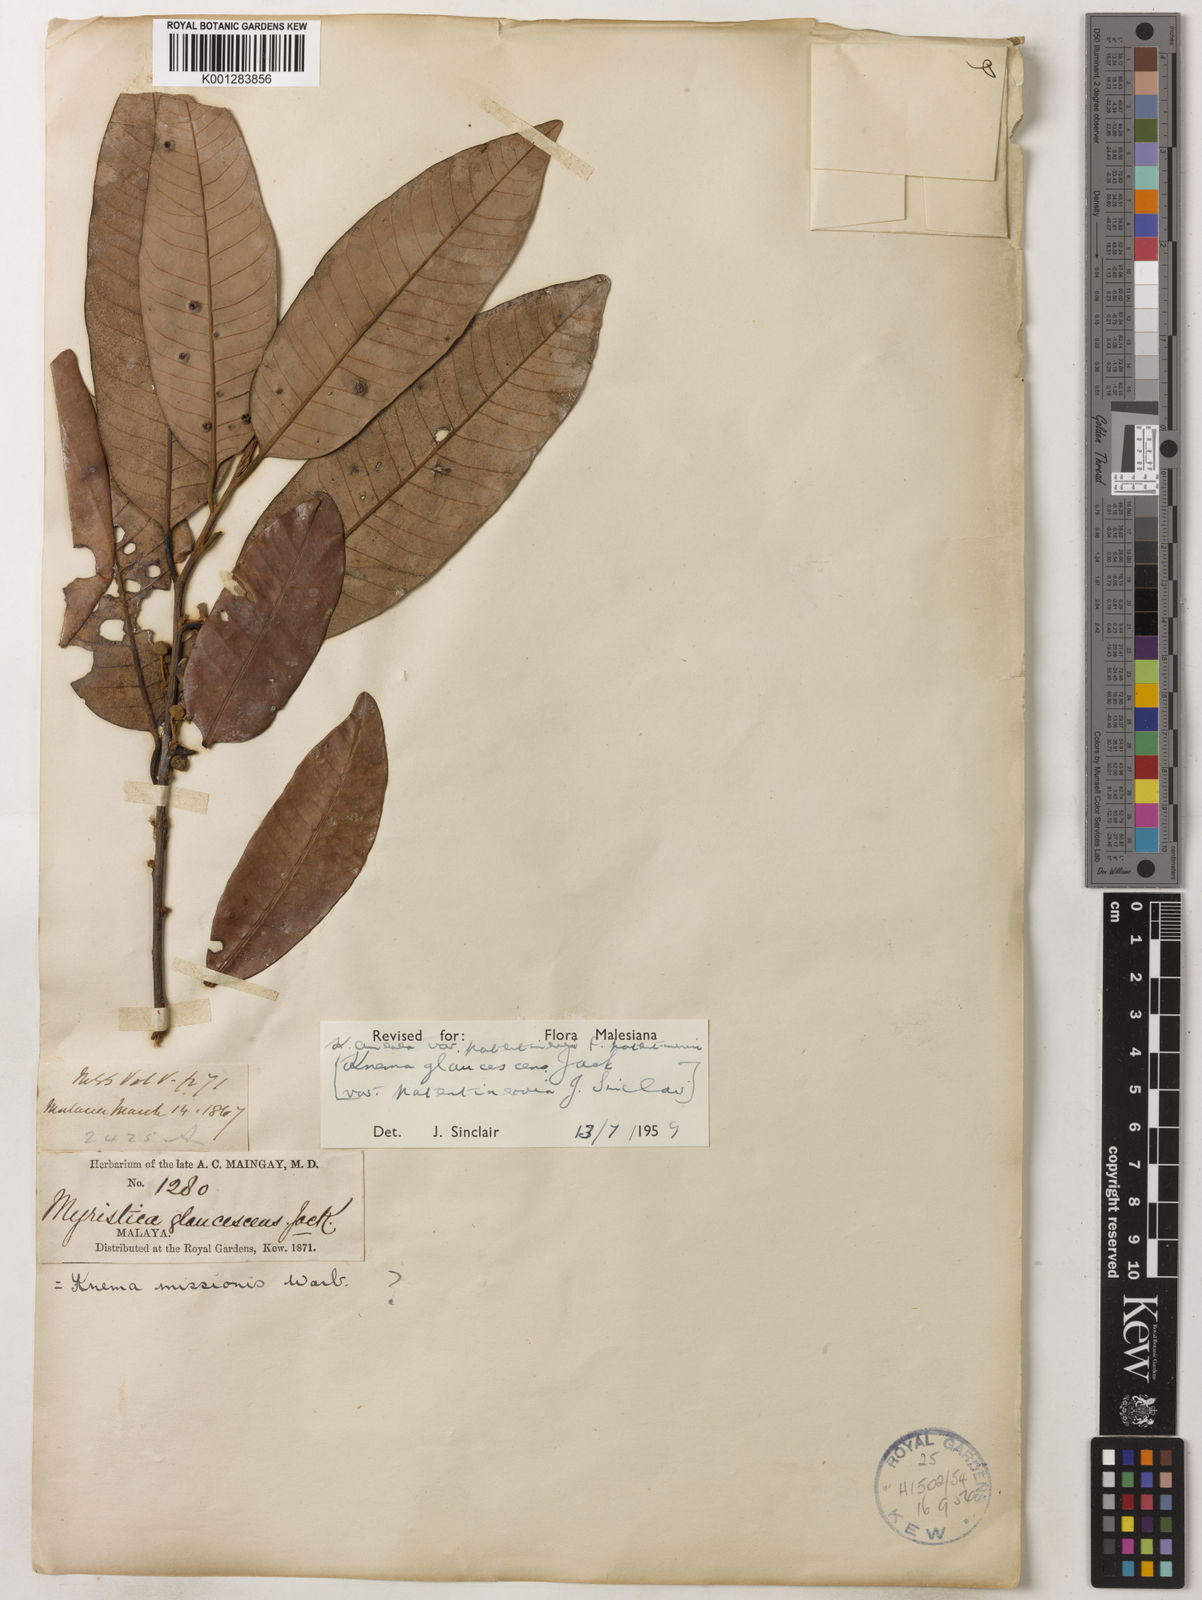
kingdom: Plantae
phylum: Tracheophyta
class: Magnoliopsida
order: Magnoliales
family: Myristicaceae
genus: Knema
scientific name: Knema
